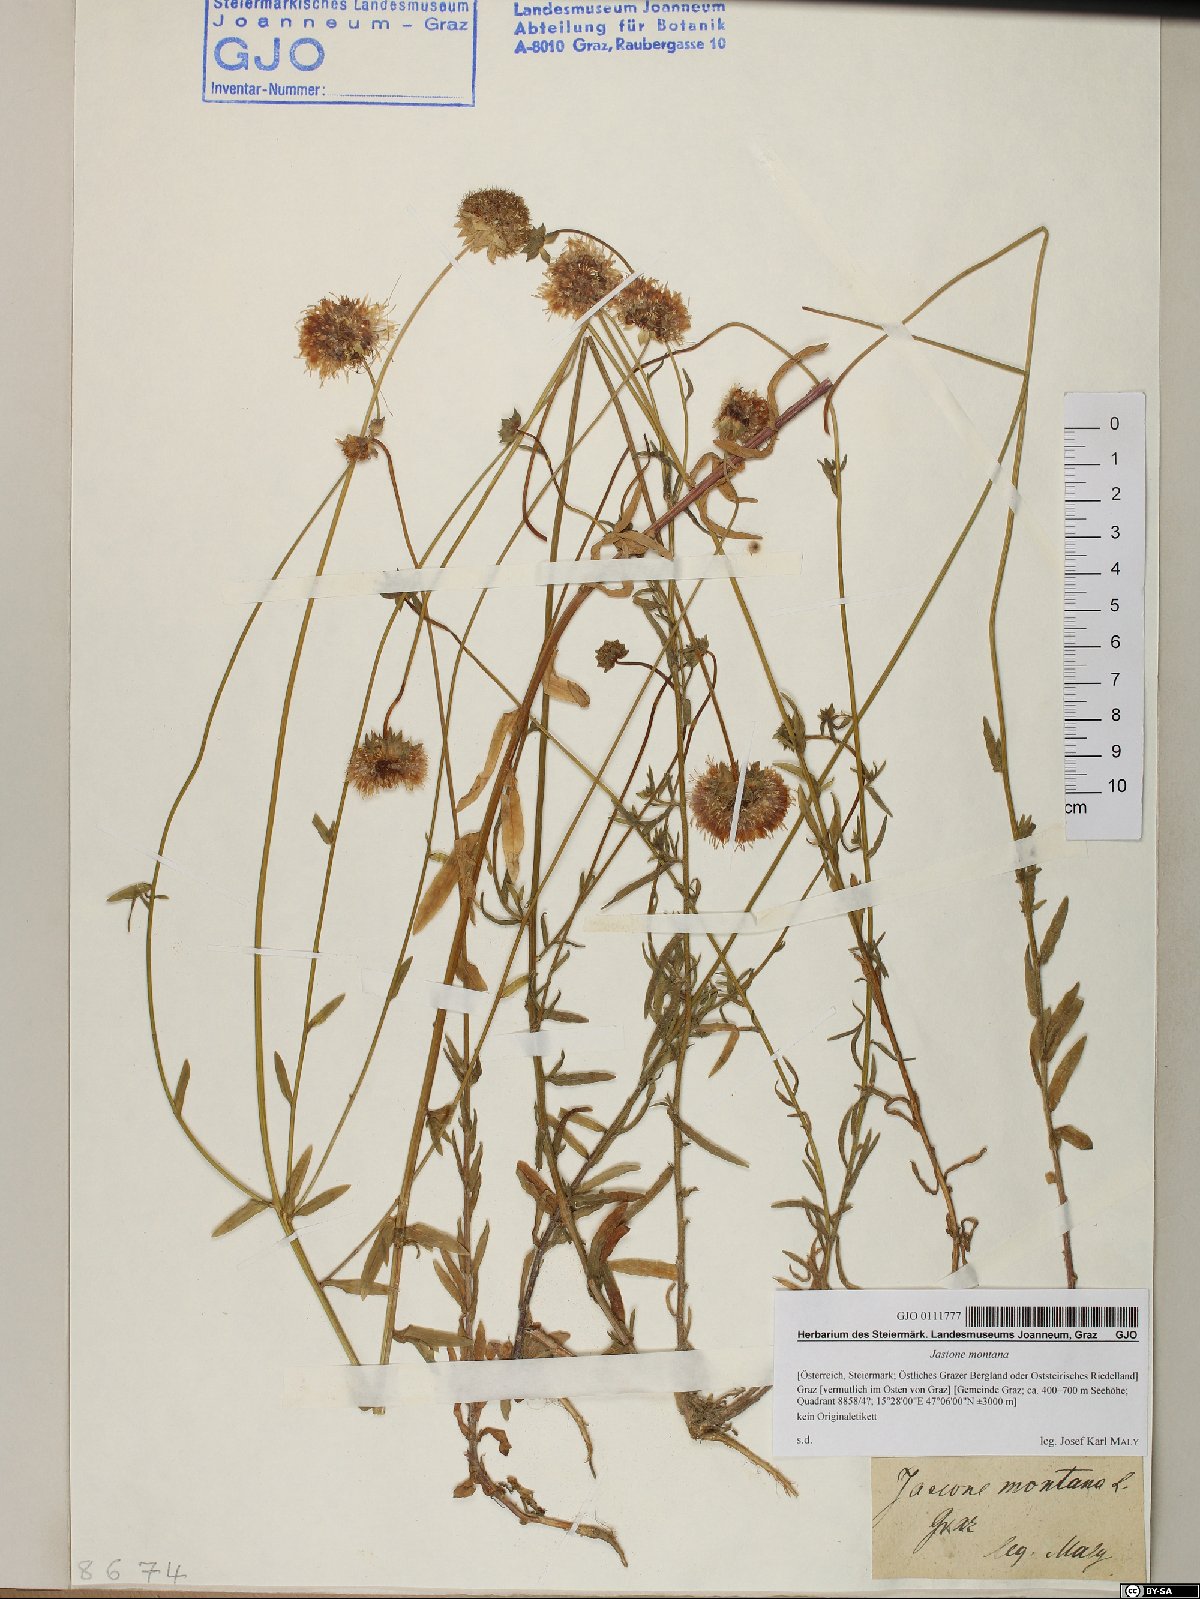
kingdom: Plantae
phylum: Tracheophyta
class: Magnoliopsida
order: Asterales
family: Campanulaceae
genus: Jasione
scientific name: Jasione montana
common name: Sheep's-bit
